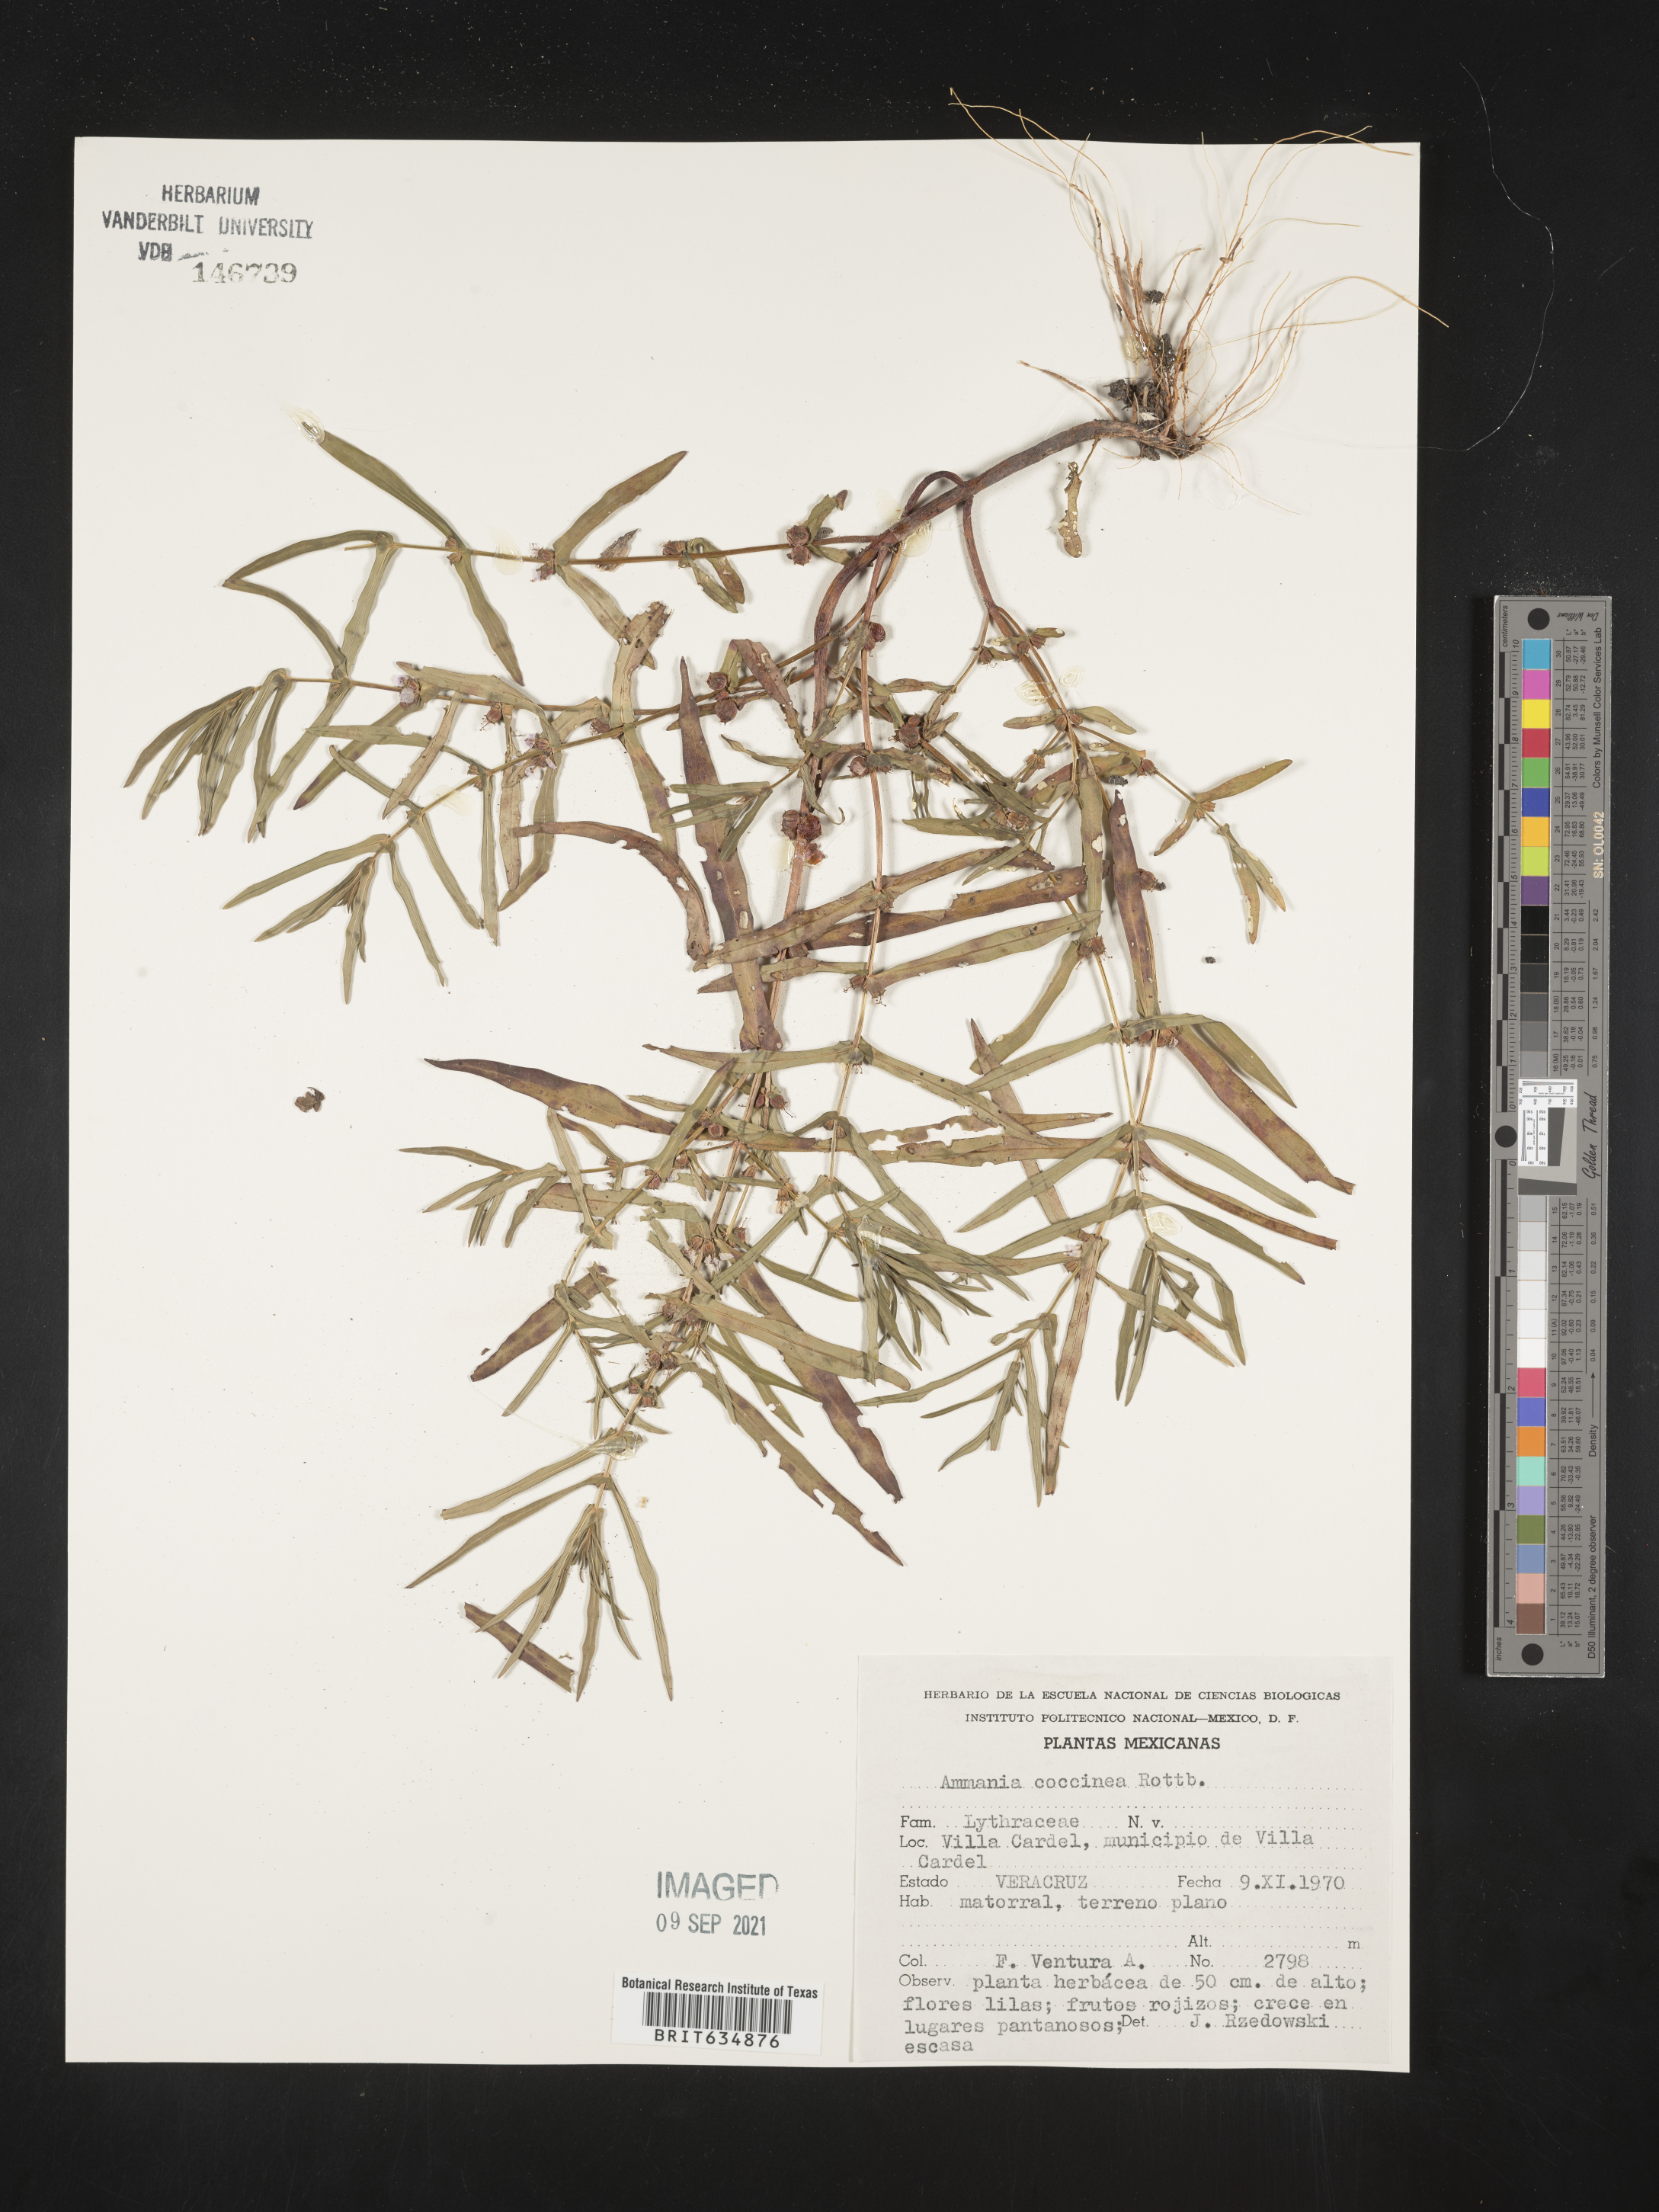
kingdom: Plantae
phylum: Tracheophyta
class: Magnoliopsida
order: Myrtales
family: Lythraceae
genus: Ammannia
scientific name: Ammannia
